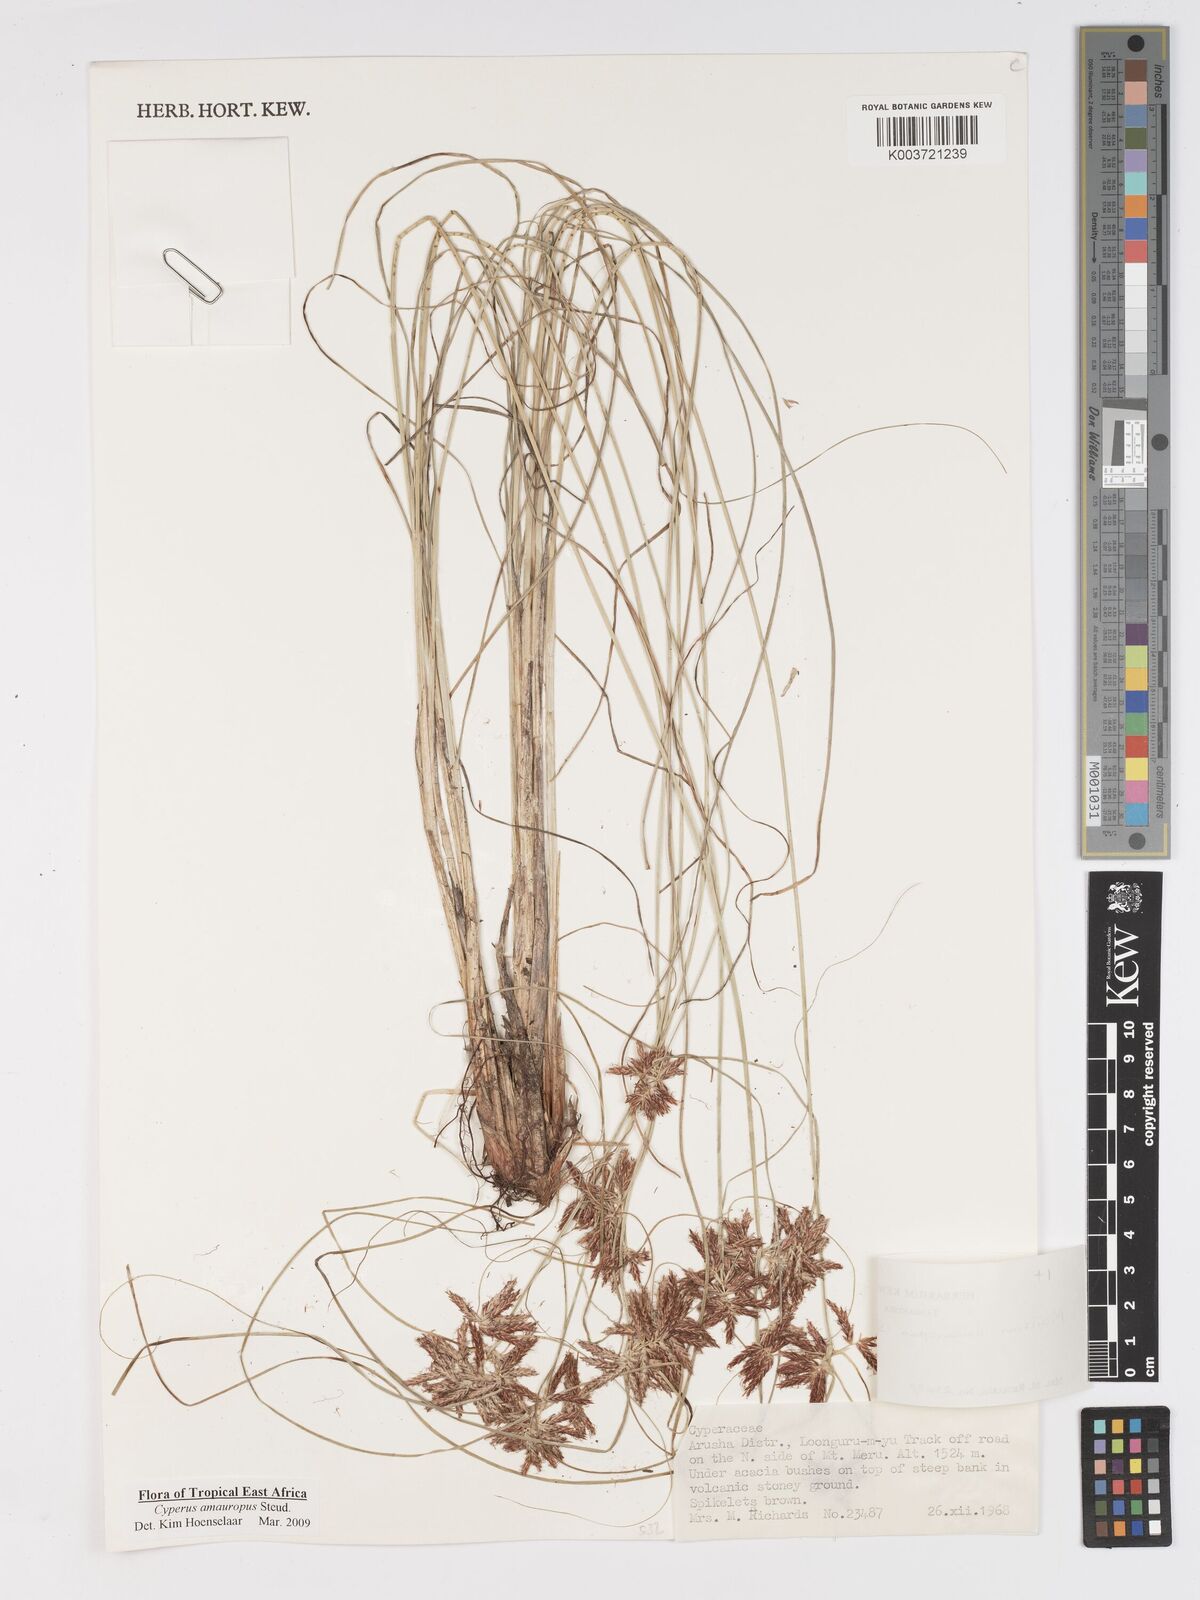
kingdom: Plantae
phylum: Tracheophyta
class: Liliopsida
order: Poales
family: Cyperaceae
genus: Cyperus
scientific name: Cyperus amauropus
